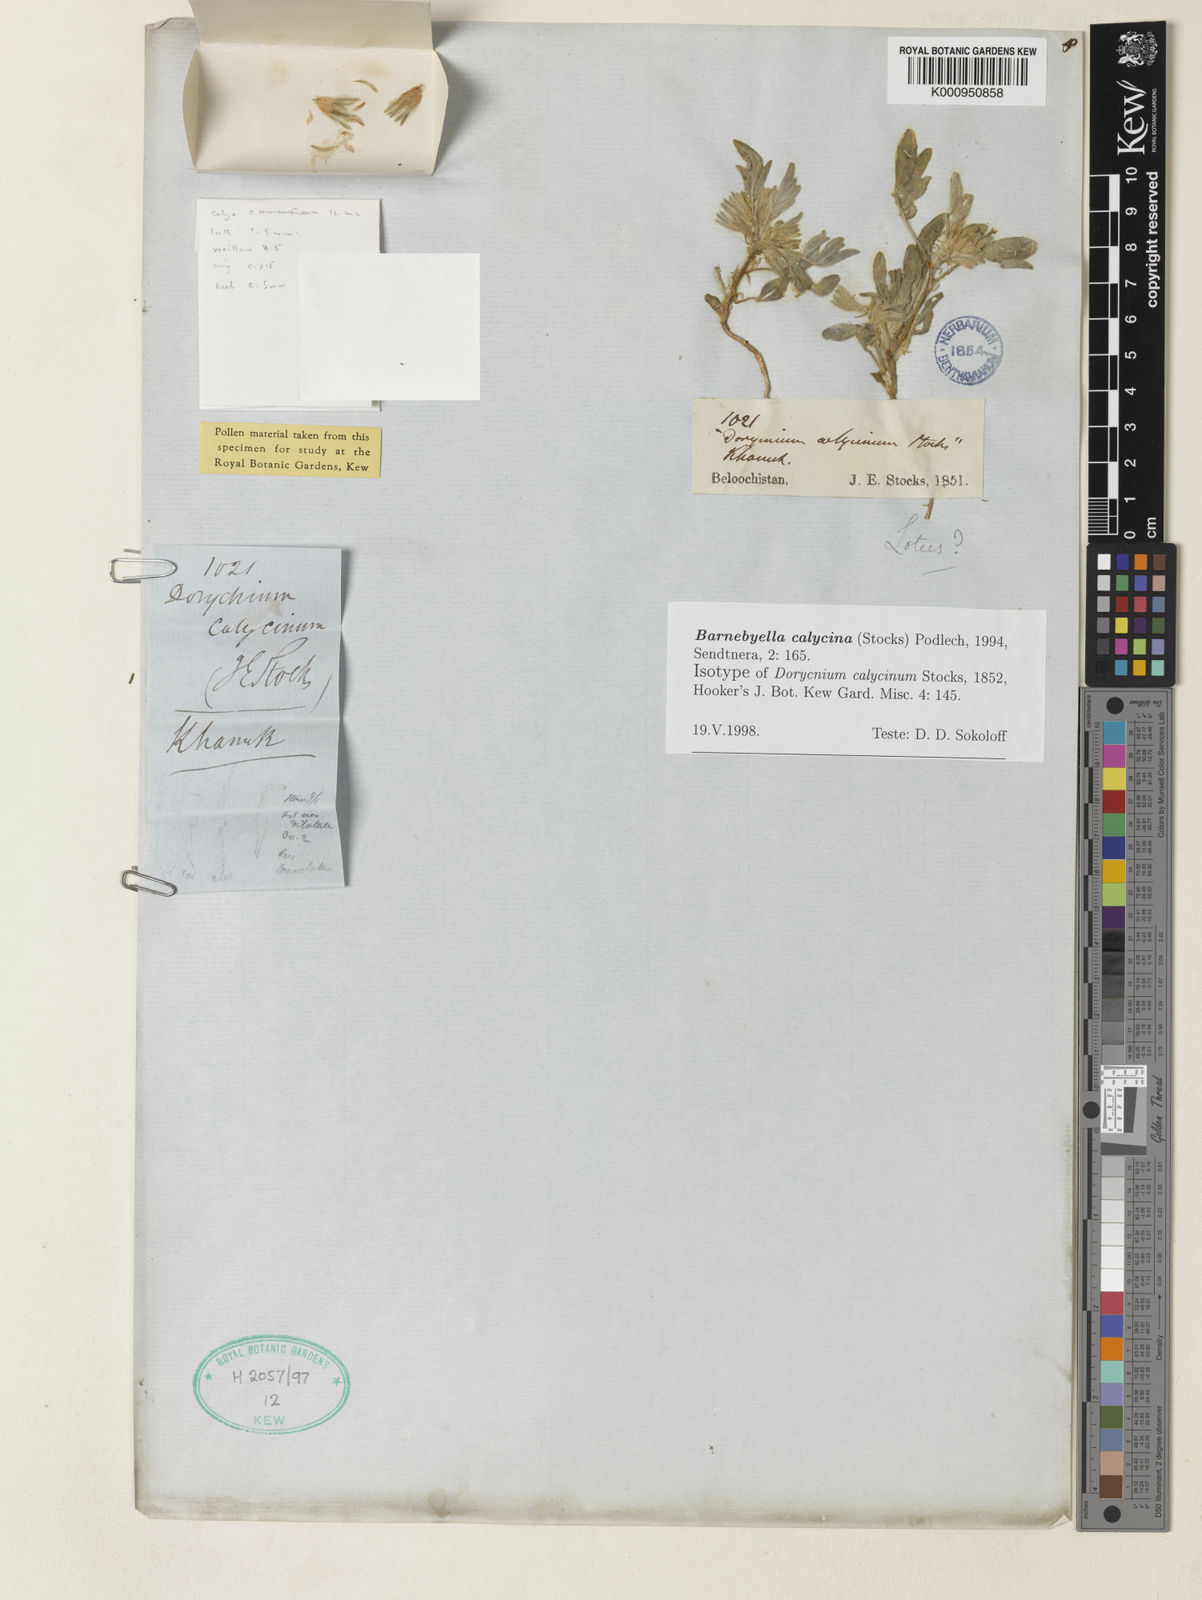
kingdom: Plantae
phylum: Tracheophyta
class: Magnoliopsida
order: Fabales
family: Fabaceae
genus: Astragalus
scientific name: Astragalus migpo
